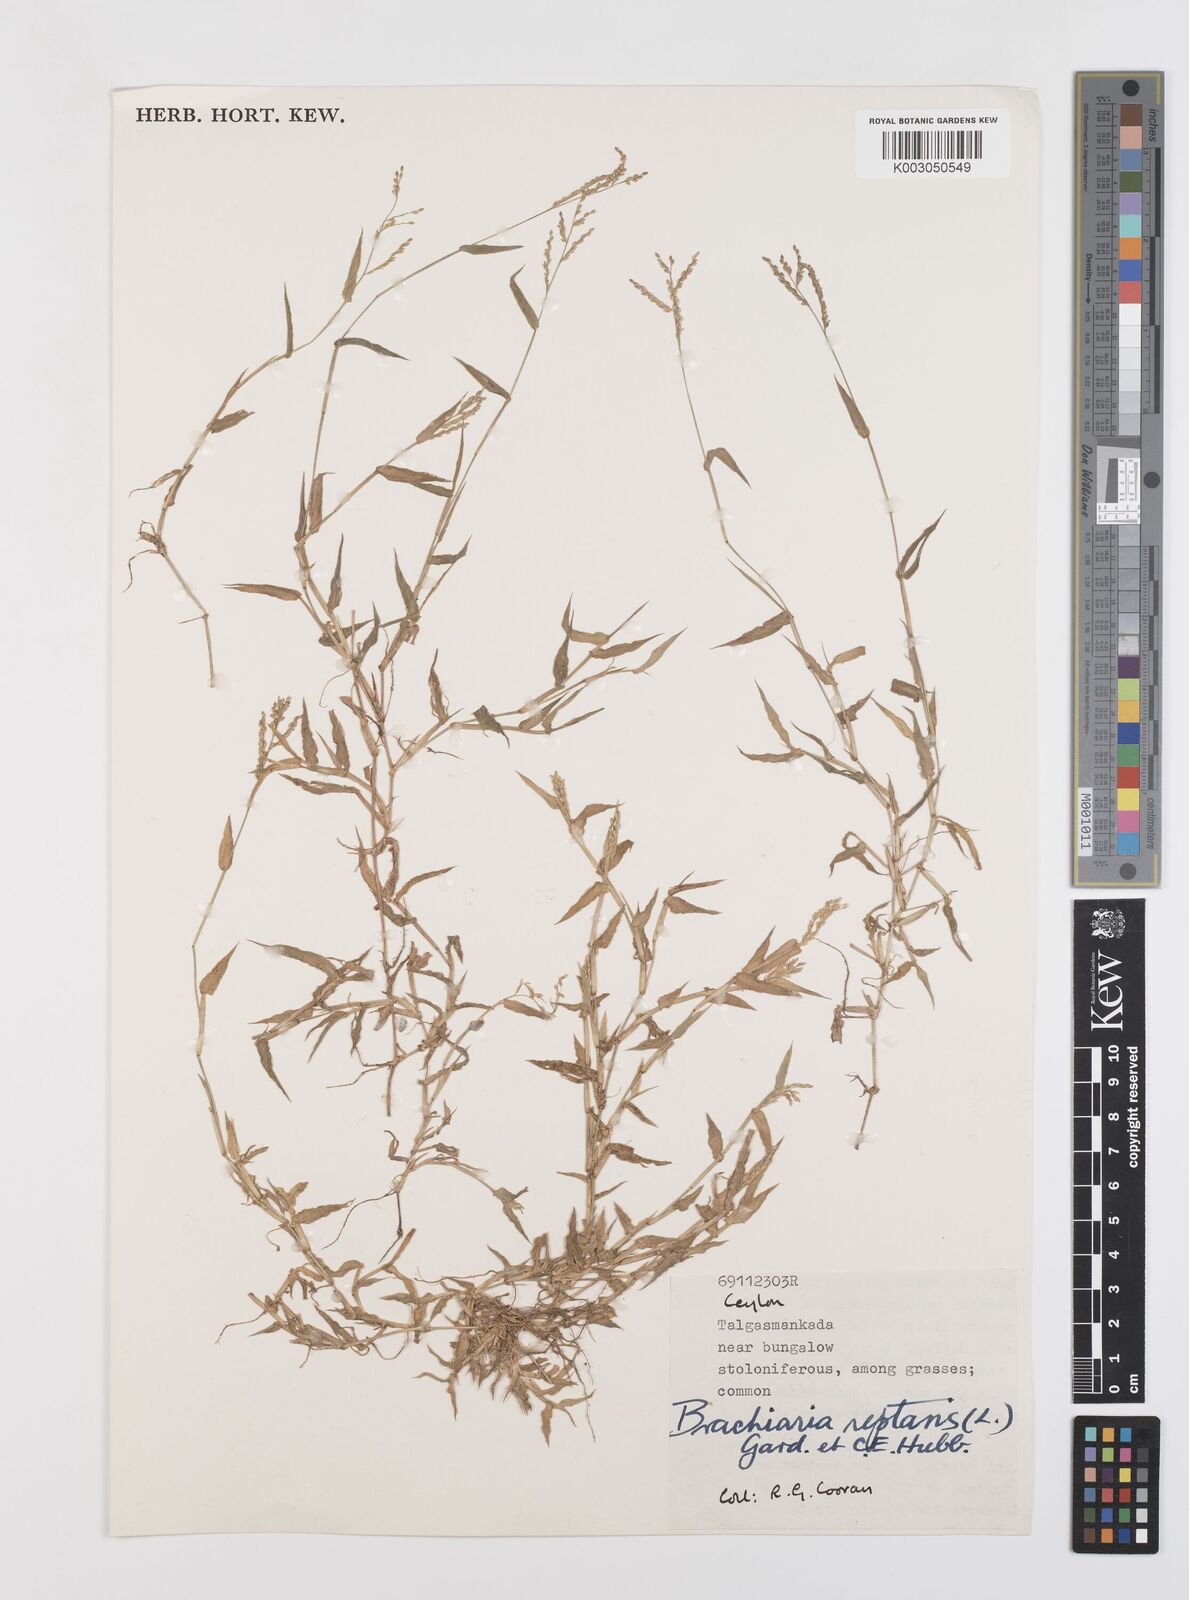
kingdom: Plantae
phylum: Tracheophyta
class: Liliopsida
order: Poales
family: Poaceae
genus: Urochloa
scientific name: Urochloa reptans
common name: Sprawling signalgrass
